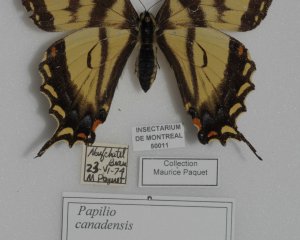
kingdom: Animalia
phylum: Arthropoda
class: Insecta
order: Lepidoptera
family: Papilionidae
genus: Pterourus
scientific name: Pterourus canadensis
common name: Canadian Tiger Swallowtail
